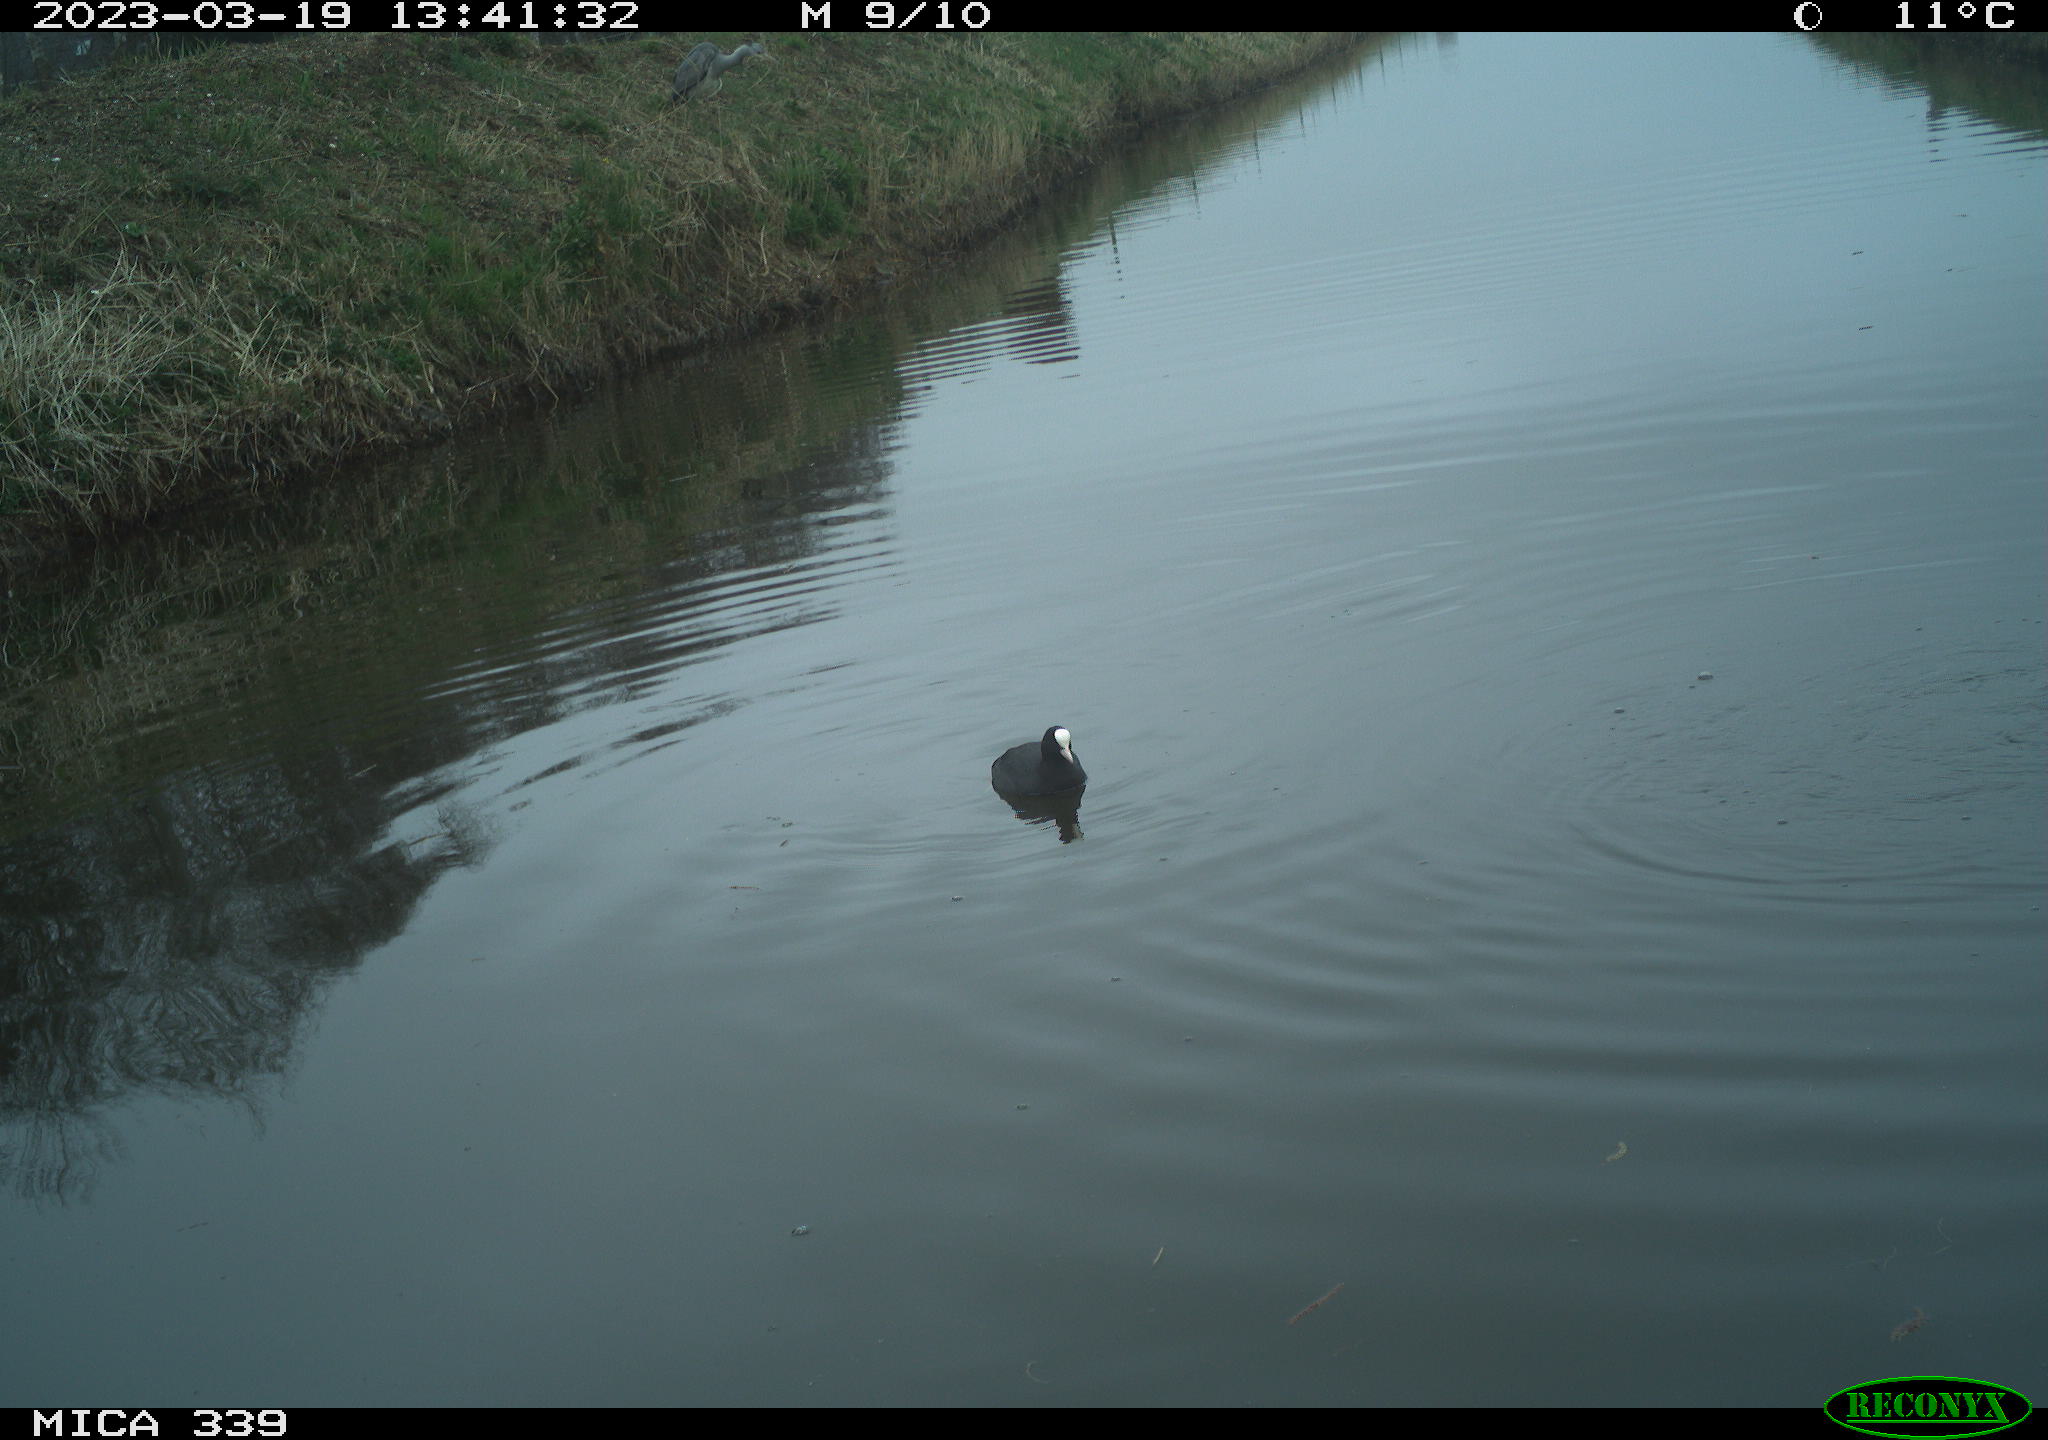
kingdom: Animalia
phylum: Chordata
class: Aves
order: Gruiformes
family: Rallidae
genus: Fulica
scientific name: Fulica atra
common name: Eurasian coot
